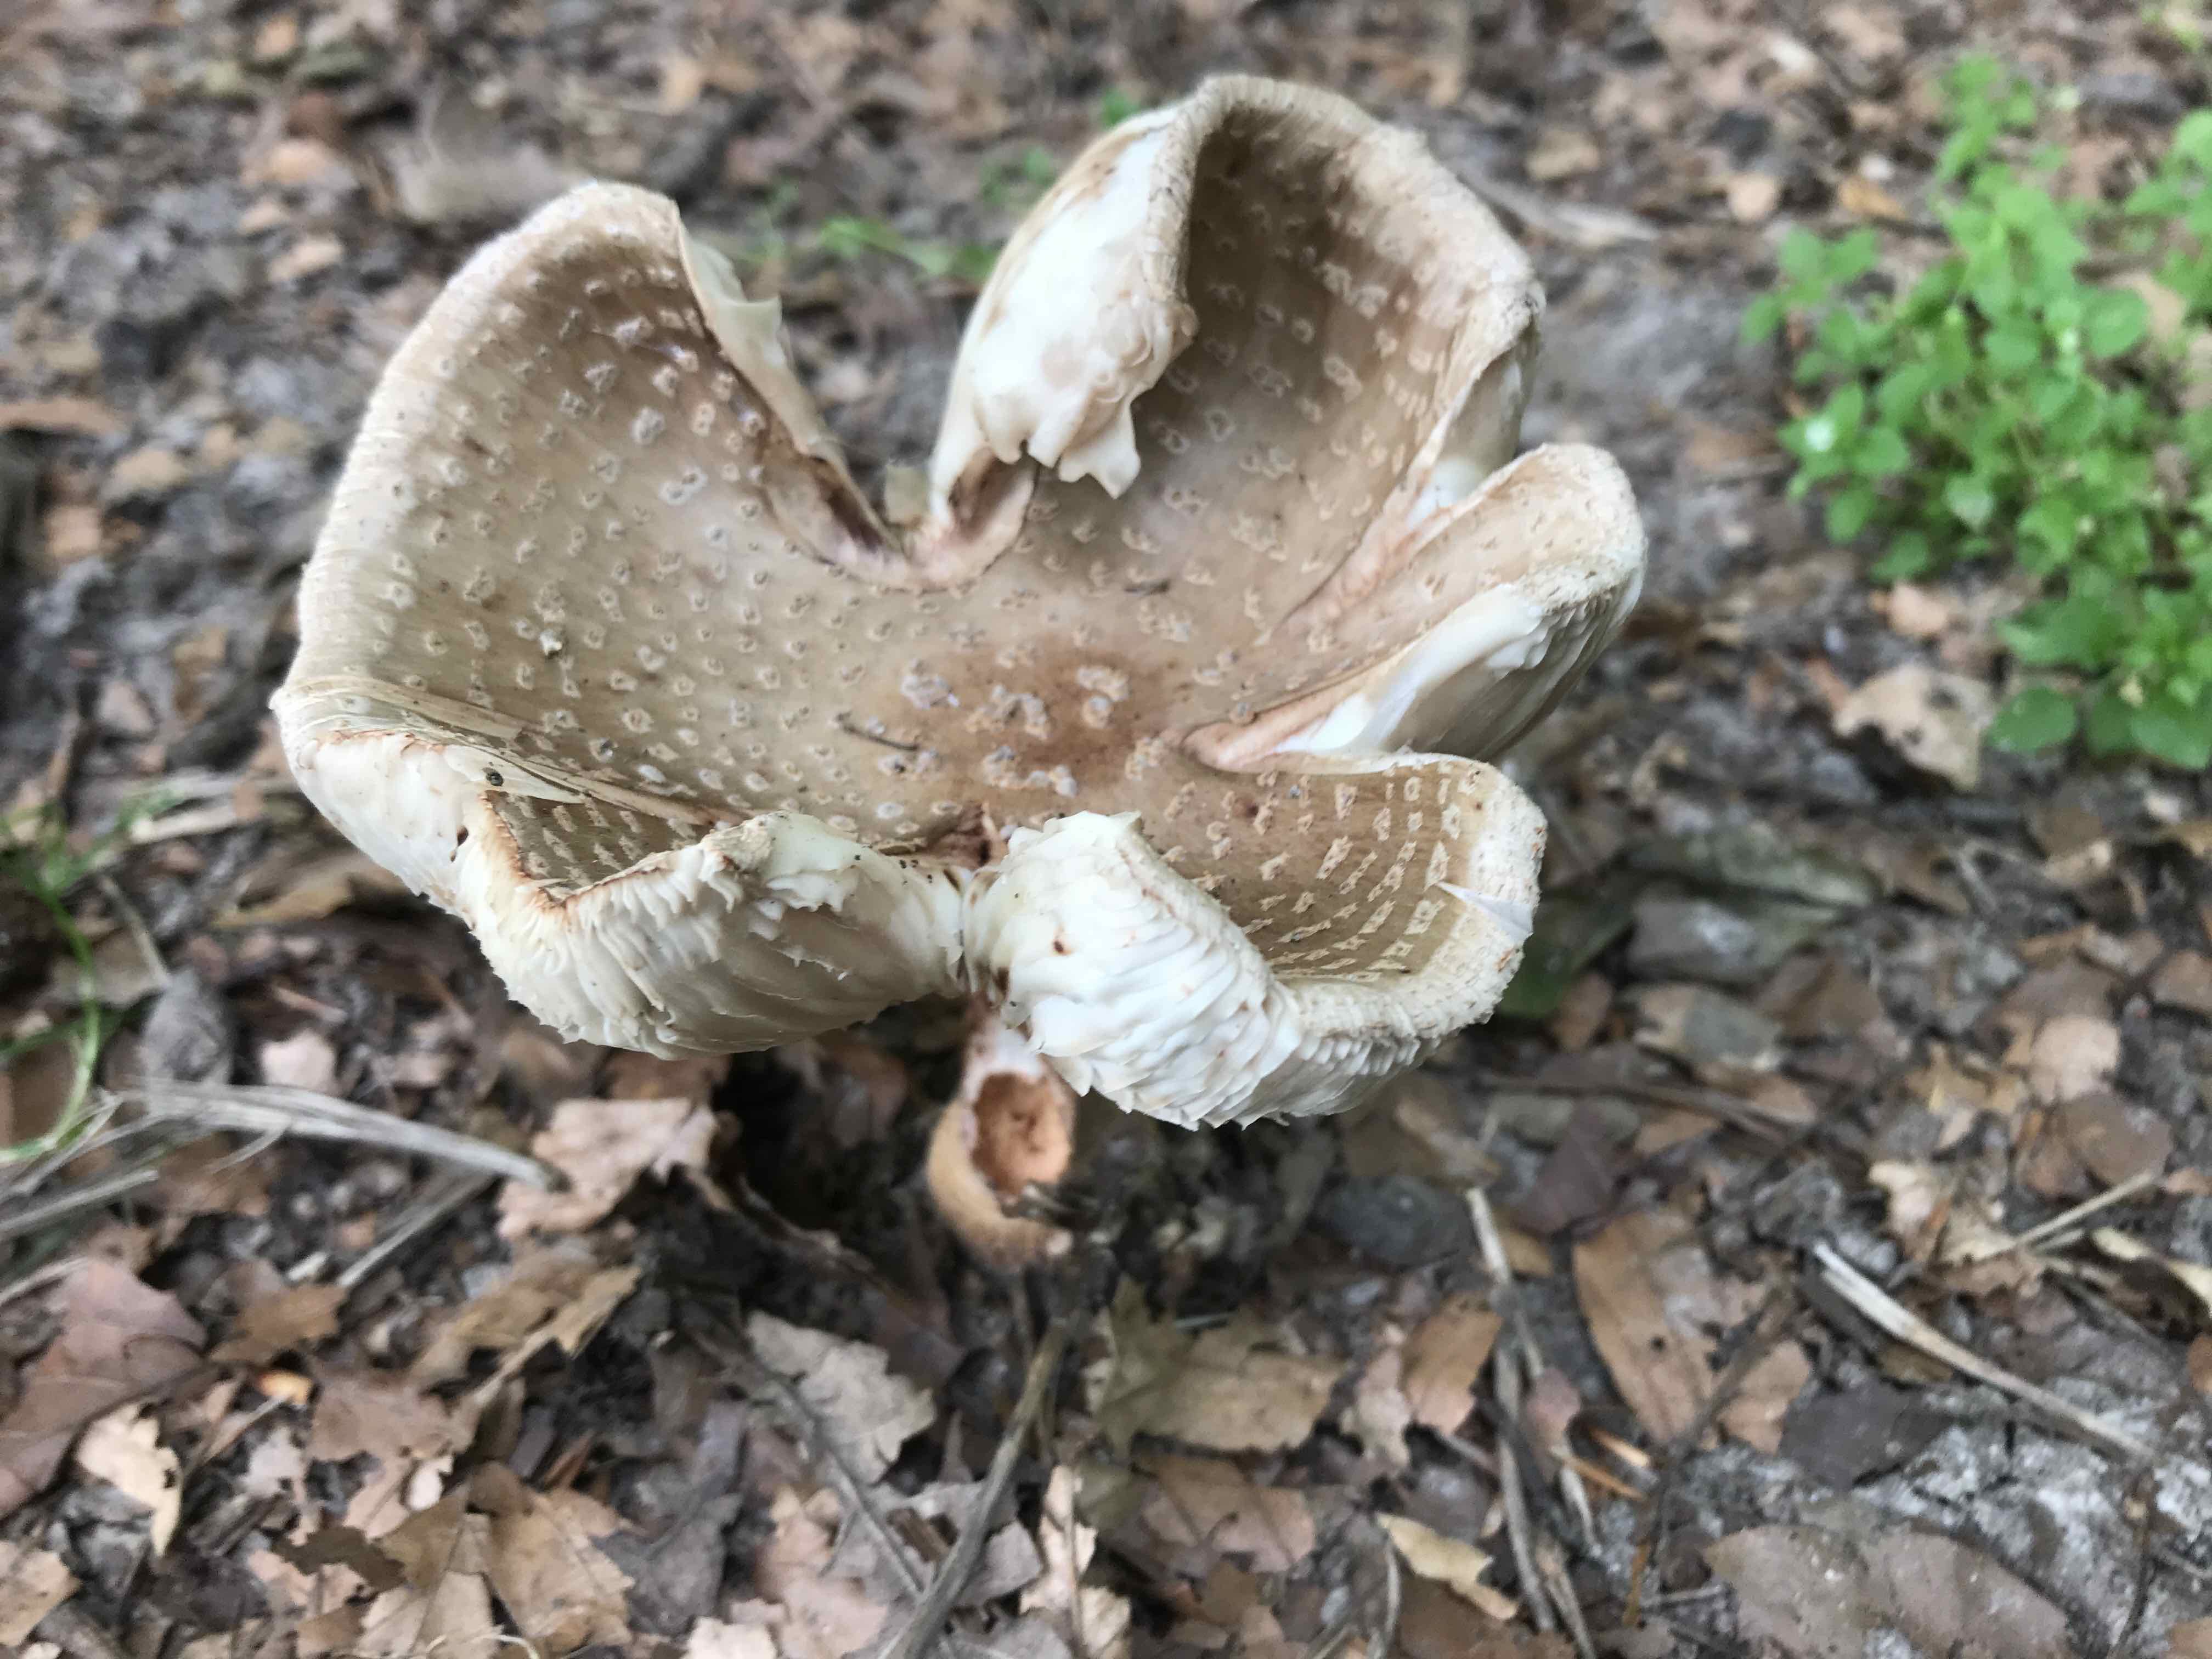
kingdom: Fungi
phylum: Basidiomycota
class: Agaricomycetes
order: Agaricales
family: Amanitaceae
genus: Amanita
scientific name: Amanita rubescens
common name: rødmende fluesvamp
